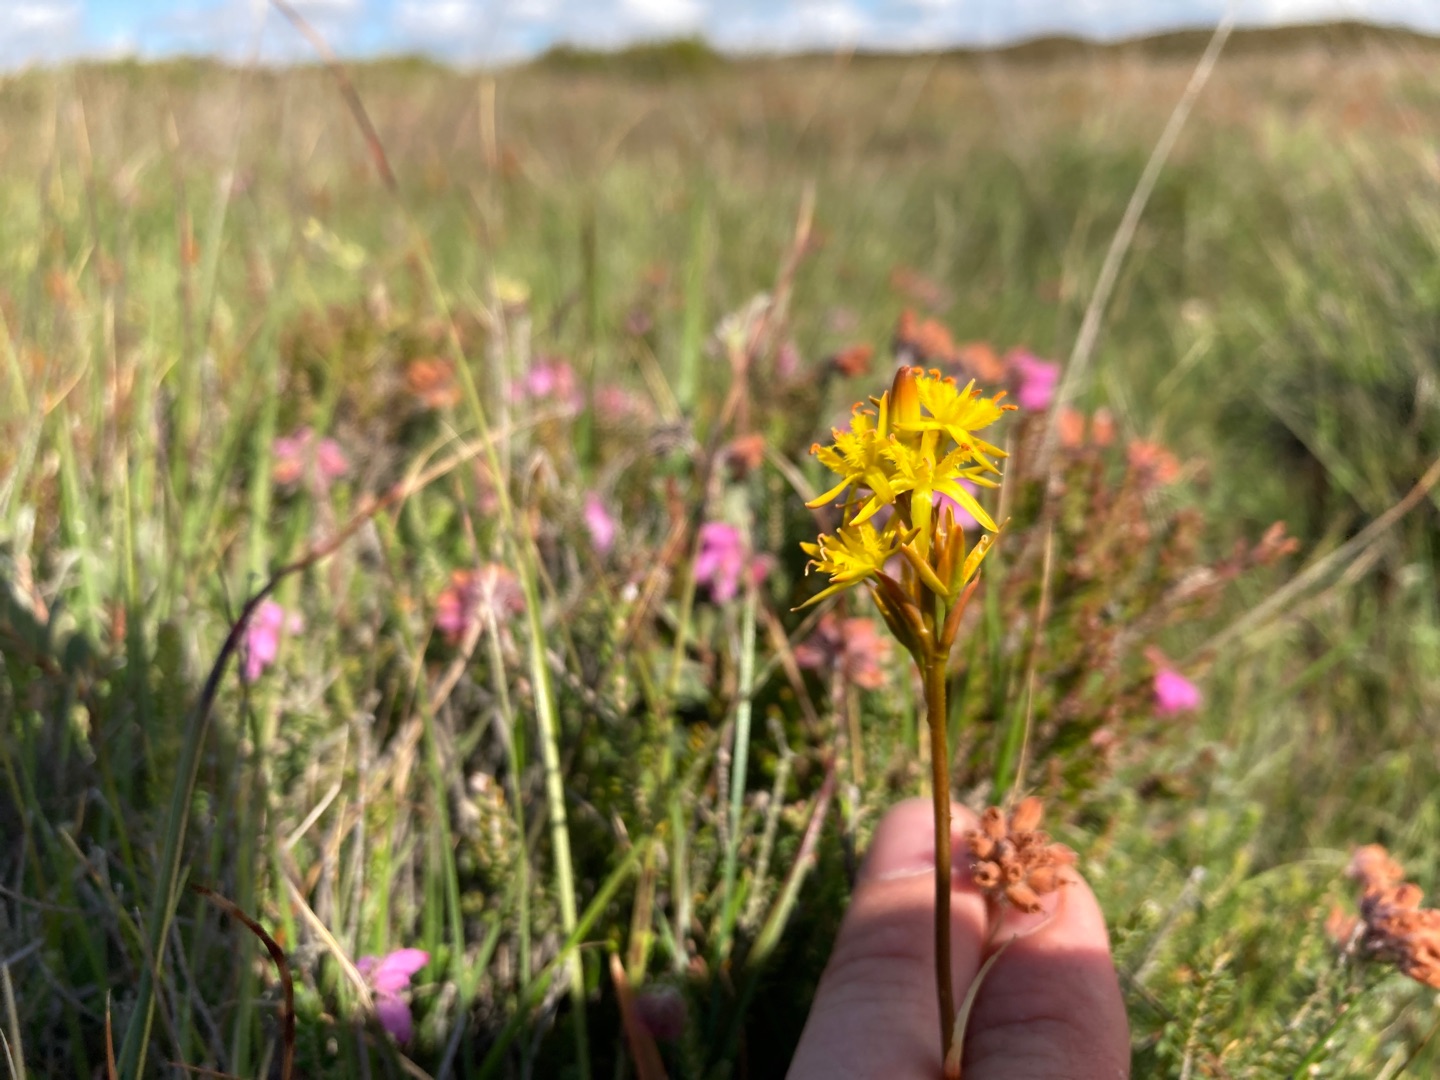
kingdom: Plantae
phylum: Tracheophyta
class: Liliopsida
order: Dioscoreales
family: Nartheciaceae
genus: Narthecium
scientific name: Narthecium ossifragum
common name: Benbræk
